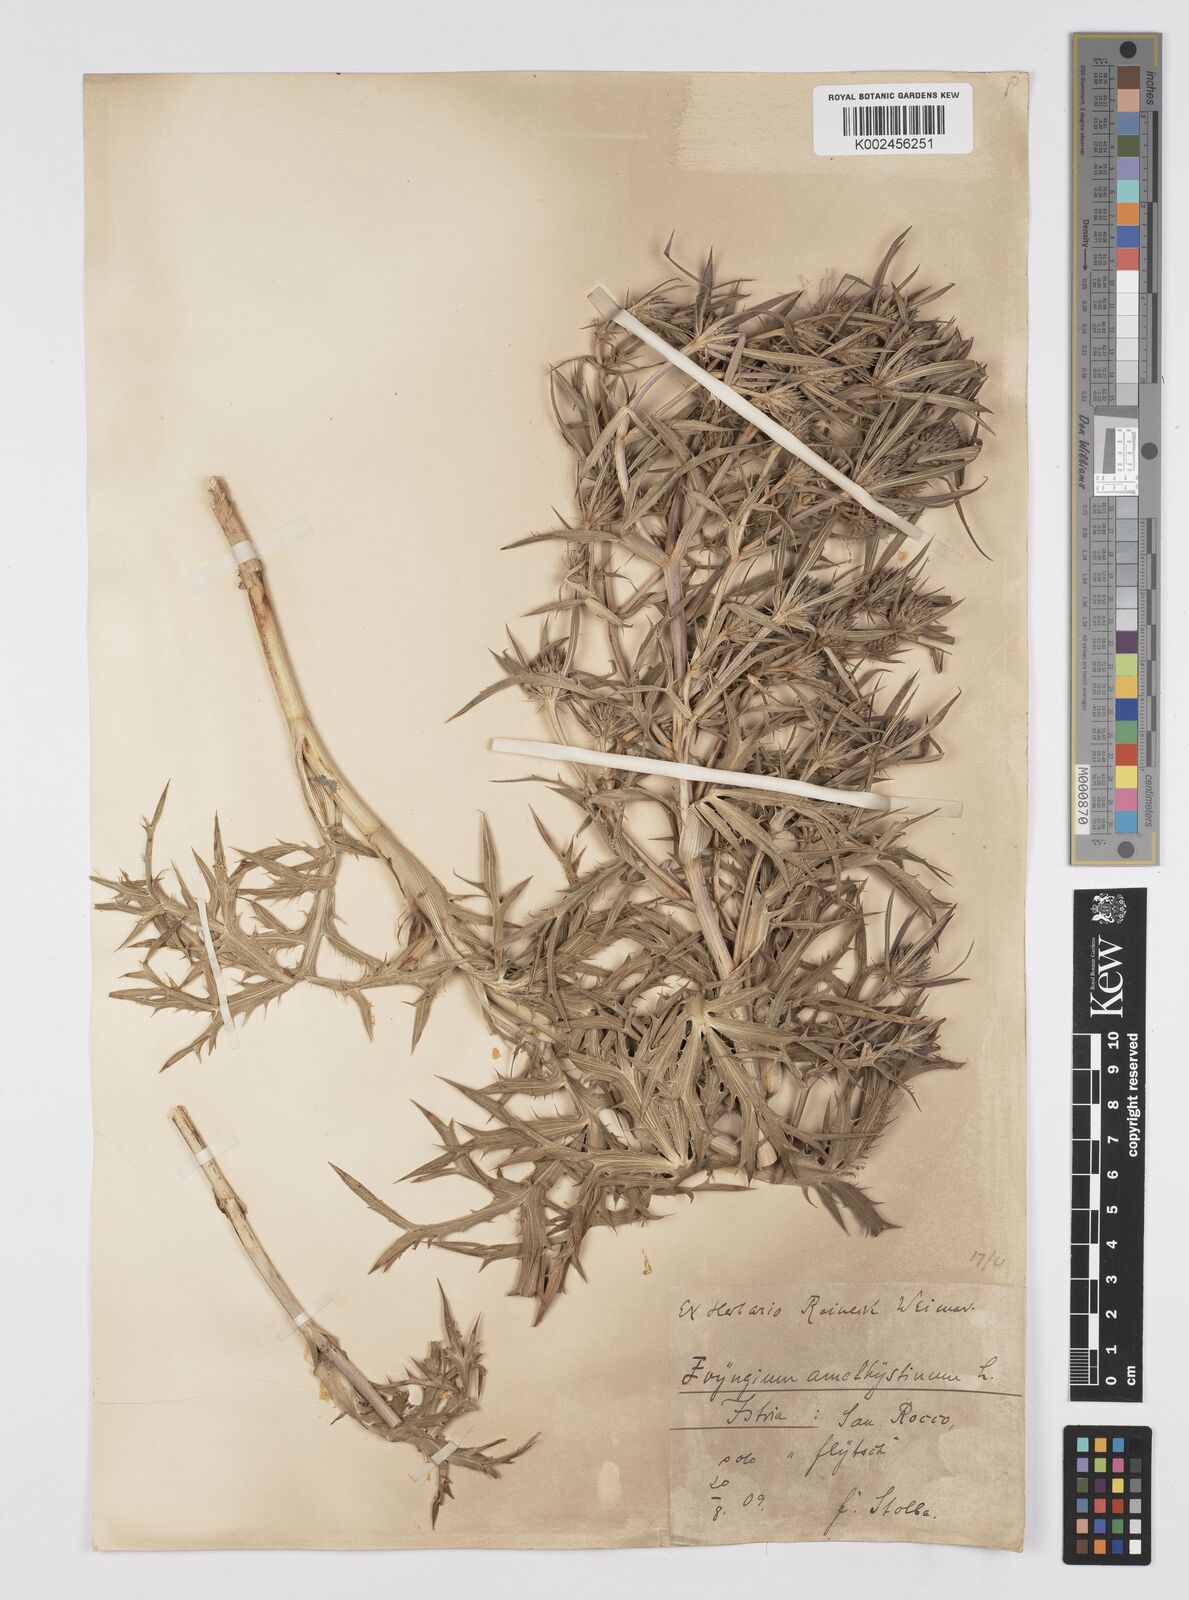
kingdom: Plantae
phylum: Tracheophyta
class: Magnoliopsida
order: Apiales
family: Apiaceae
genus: Eryngium
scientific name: Eryngium amethystinum
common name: Amethyst eryngo
